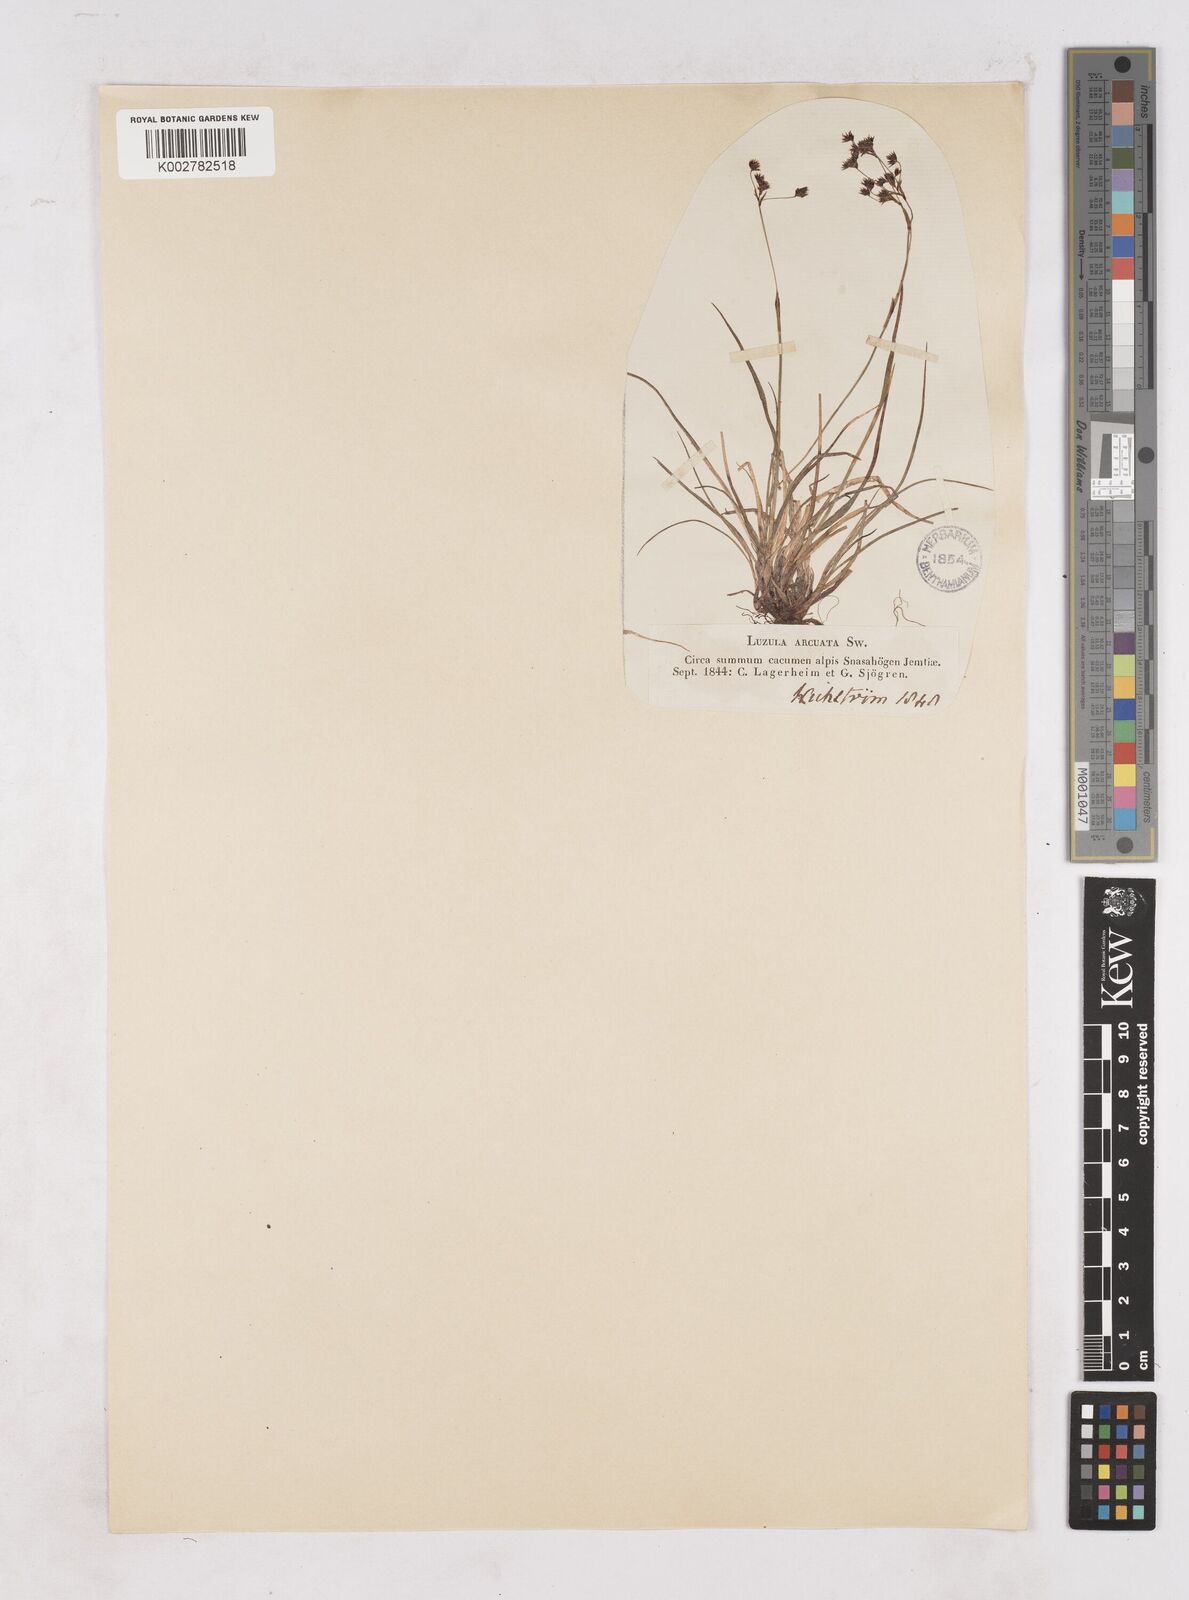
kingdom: Plantae
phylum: Tracheophyta
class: Liliopsida
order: Poales
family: Juncaceae
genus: Luzula
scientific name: Luzula arcuata
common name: Curved wood-rush
